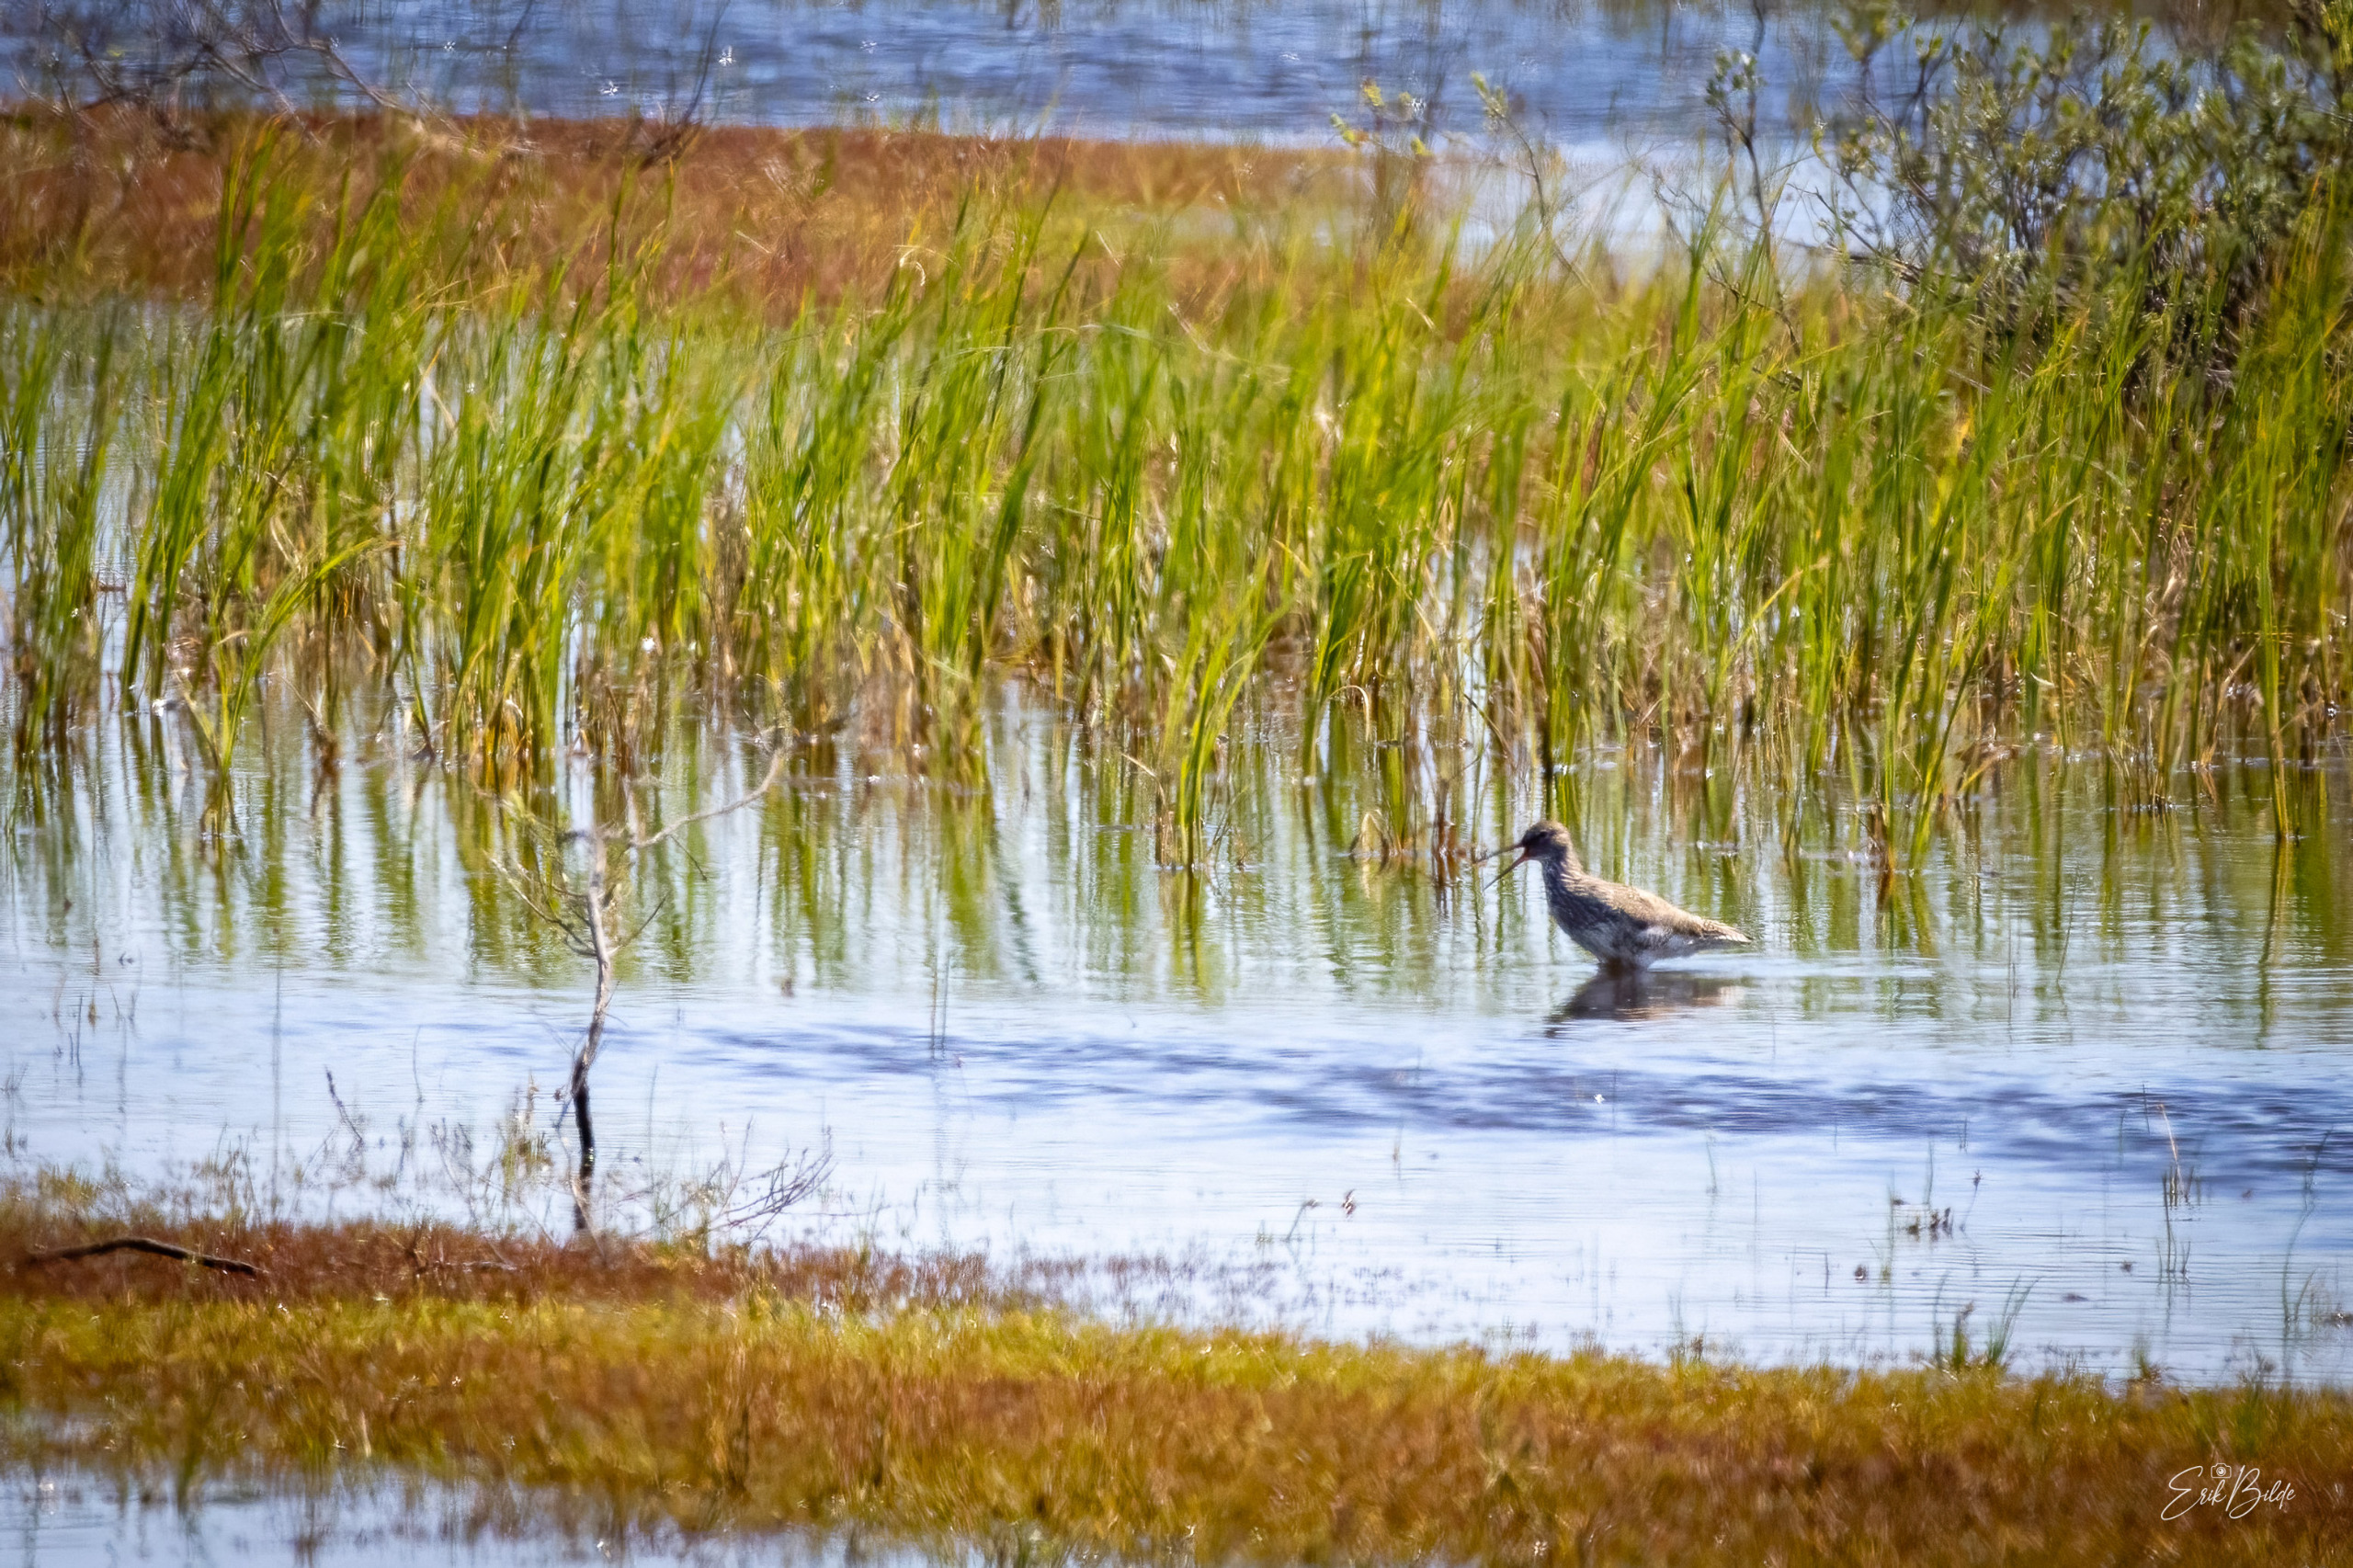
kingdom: Animalia
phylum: Chordata
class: Aves
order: Charadriiformes
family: Scolopacidae
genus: Tringa
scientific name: Tringa totanus
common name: Rødben
